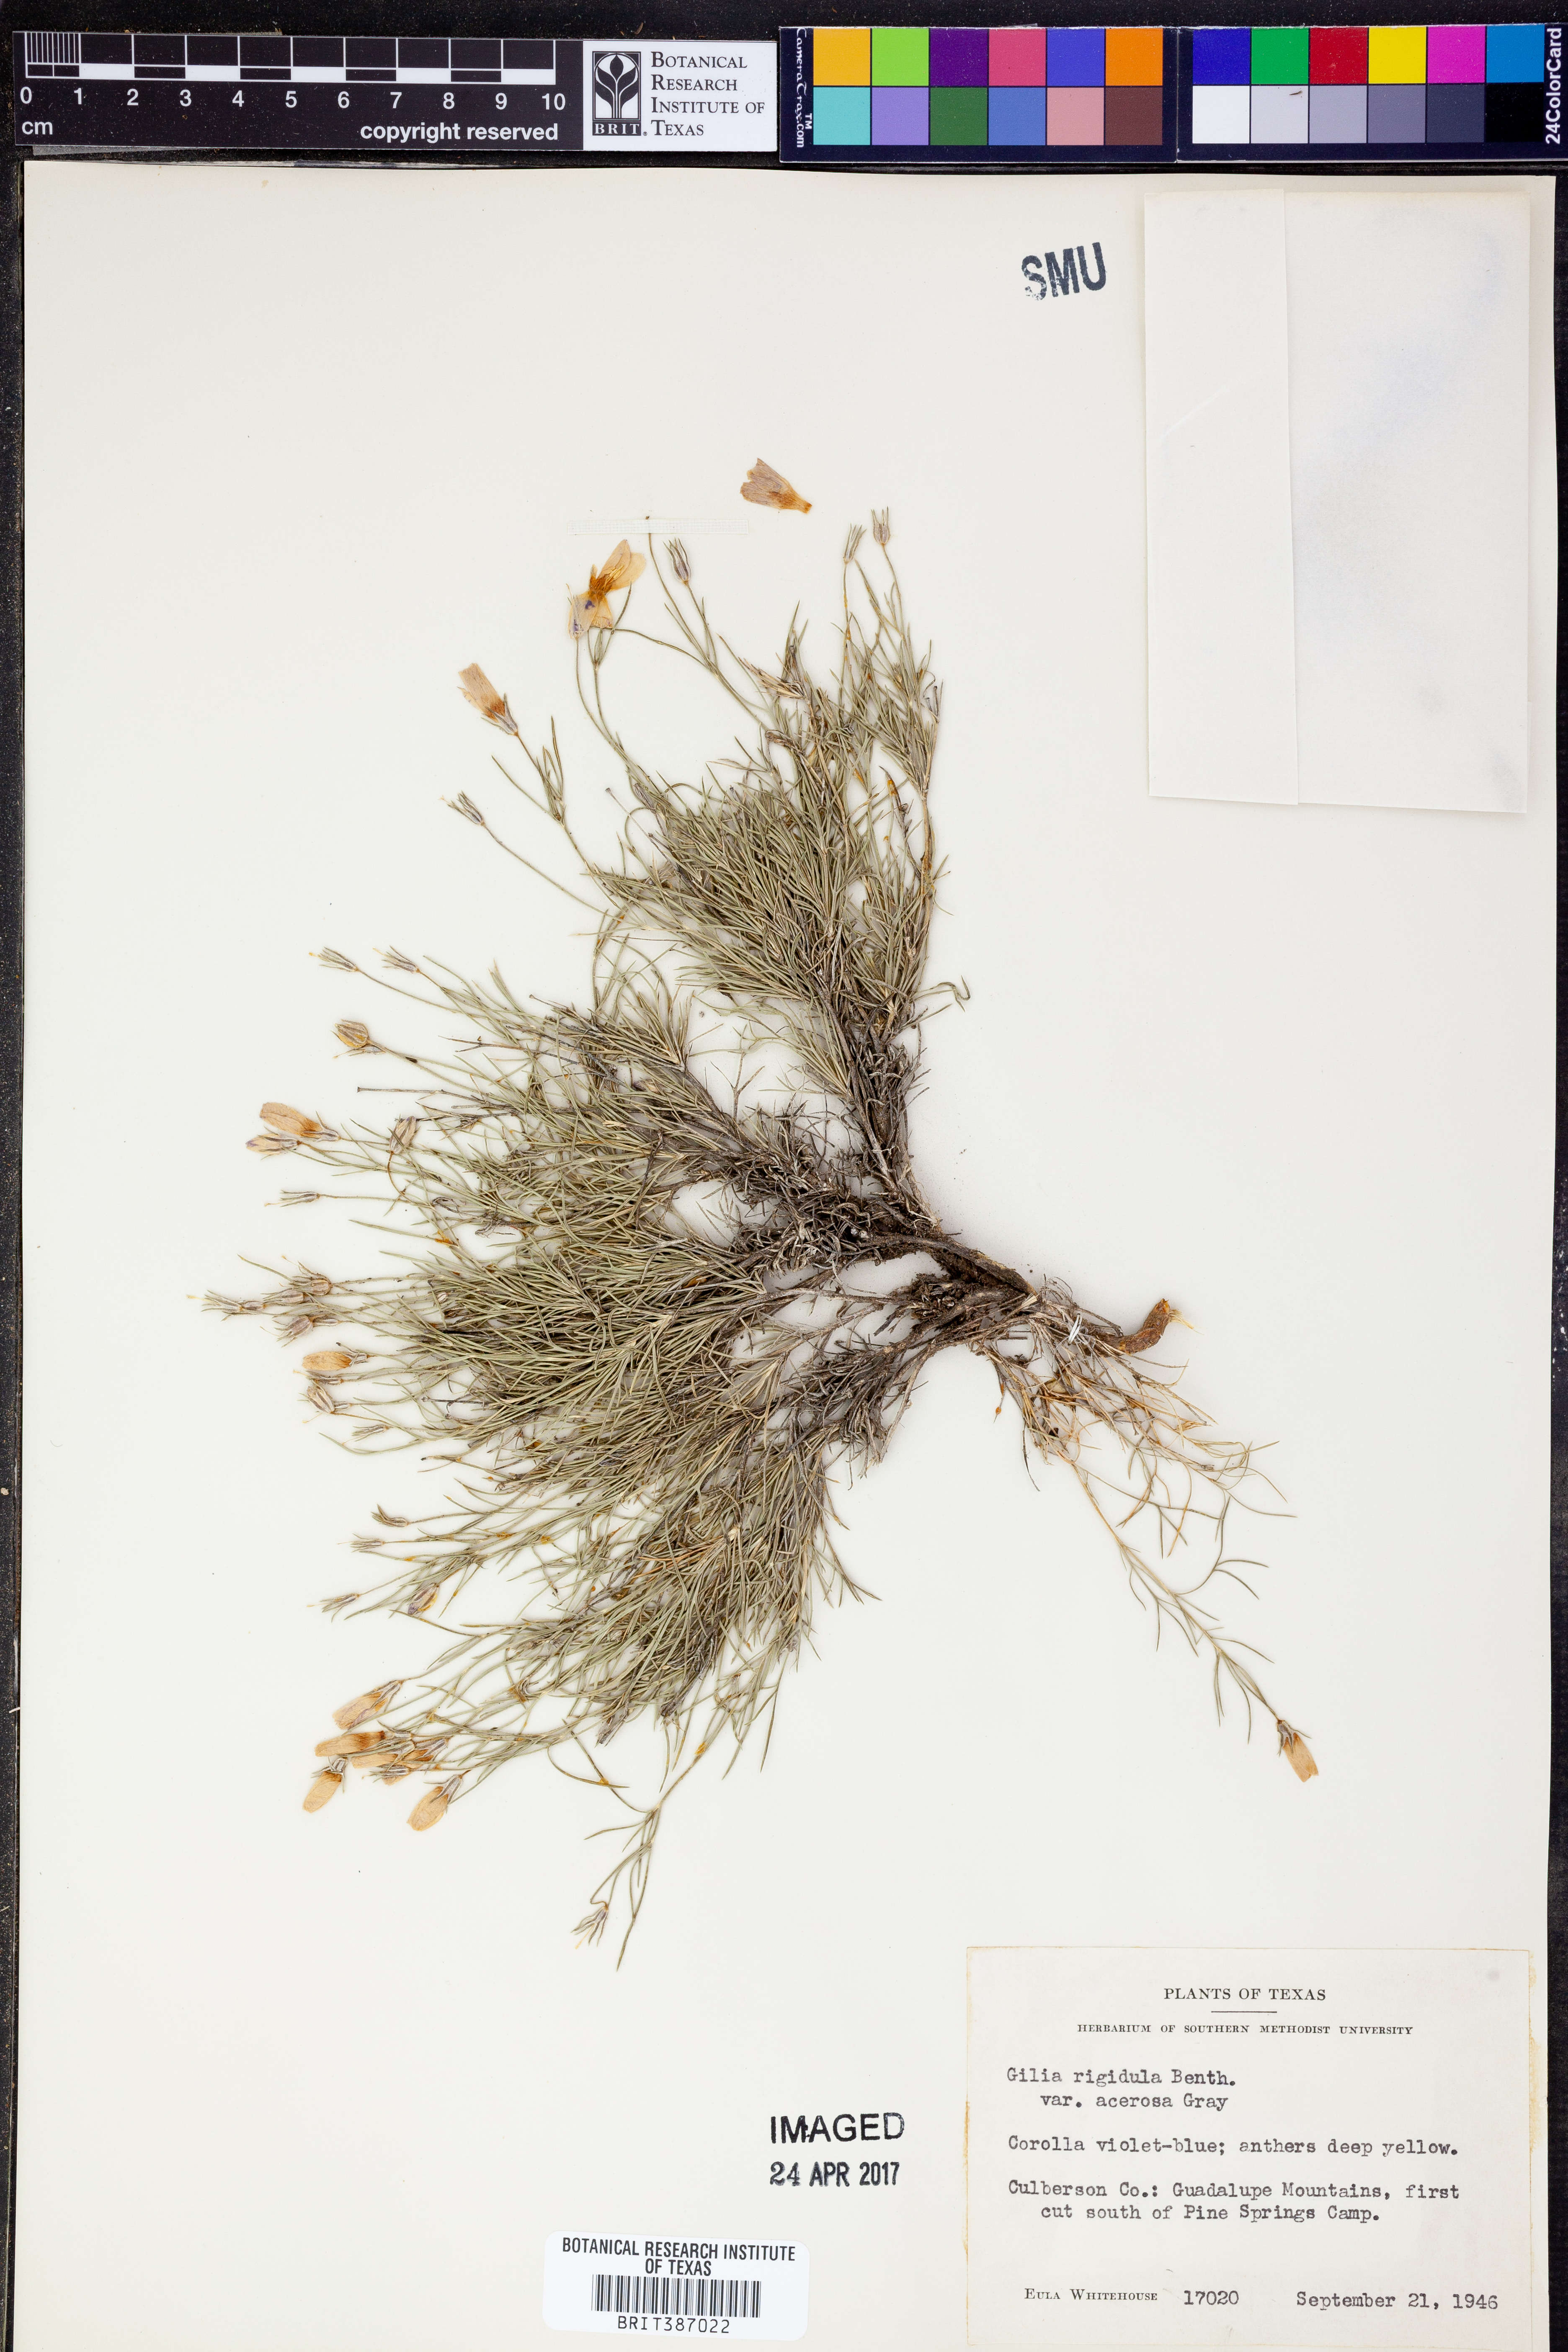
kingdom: Plantae
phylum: Tracheophyta
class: Magnoliopsida
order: Ericales
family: Polemoniaceae
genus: Giliastrum
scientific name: Giliastrum acerosum
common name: Bluebowls
